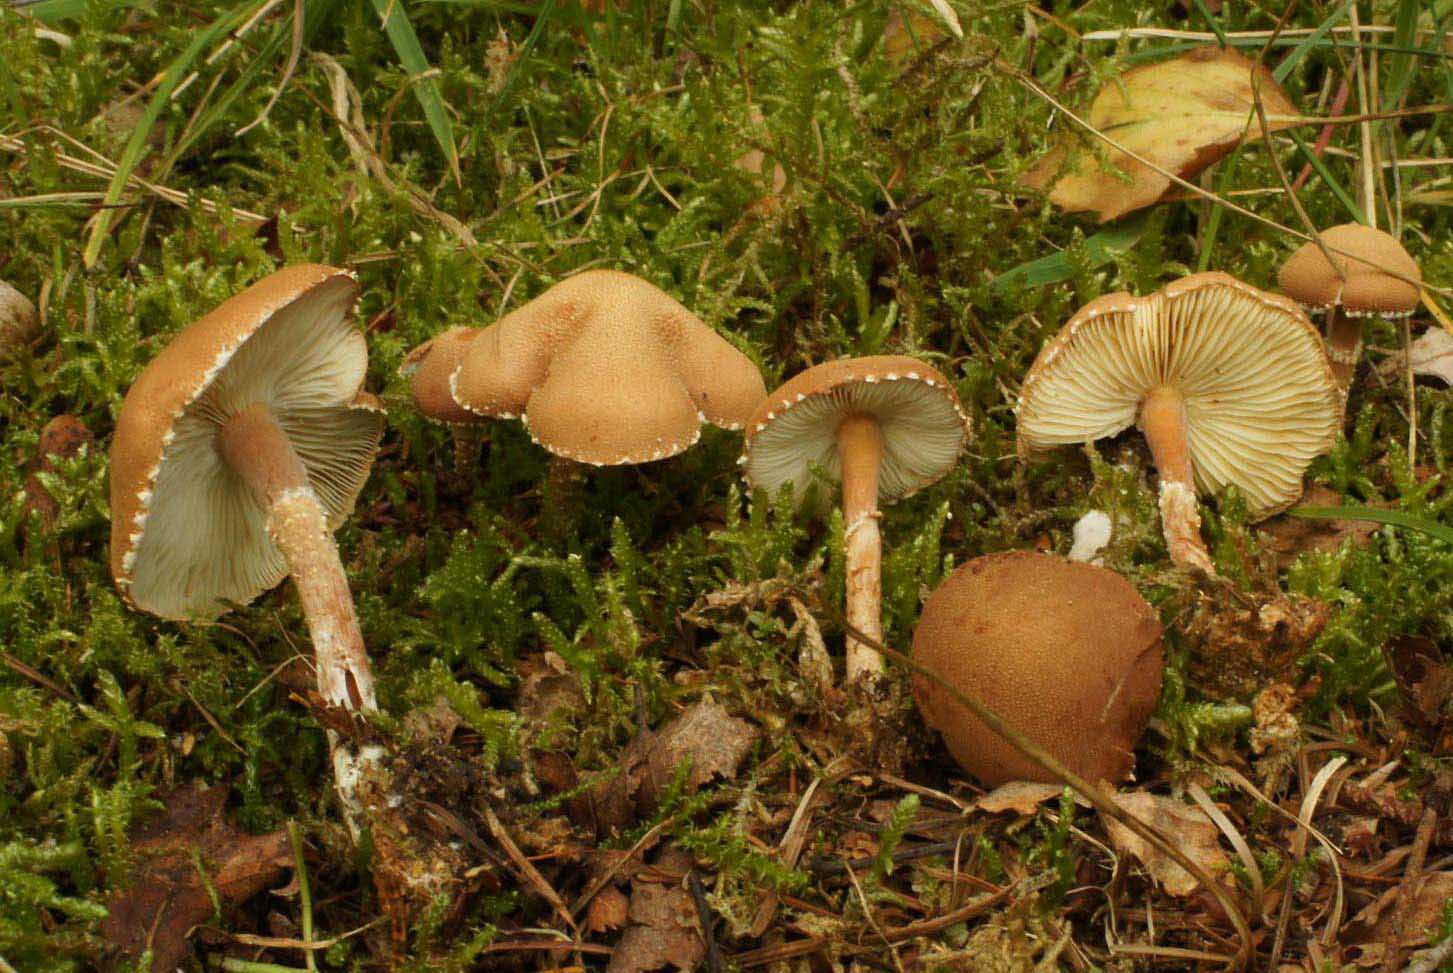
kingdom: Fungi
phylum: Basidiomycota
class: Agaricomycetes
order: Agaricales
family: Agaricaceae
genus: Cystodermella
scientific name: Cystodermella adnatifolia
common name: koralrød grynhat
